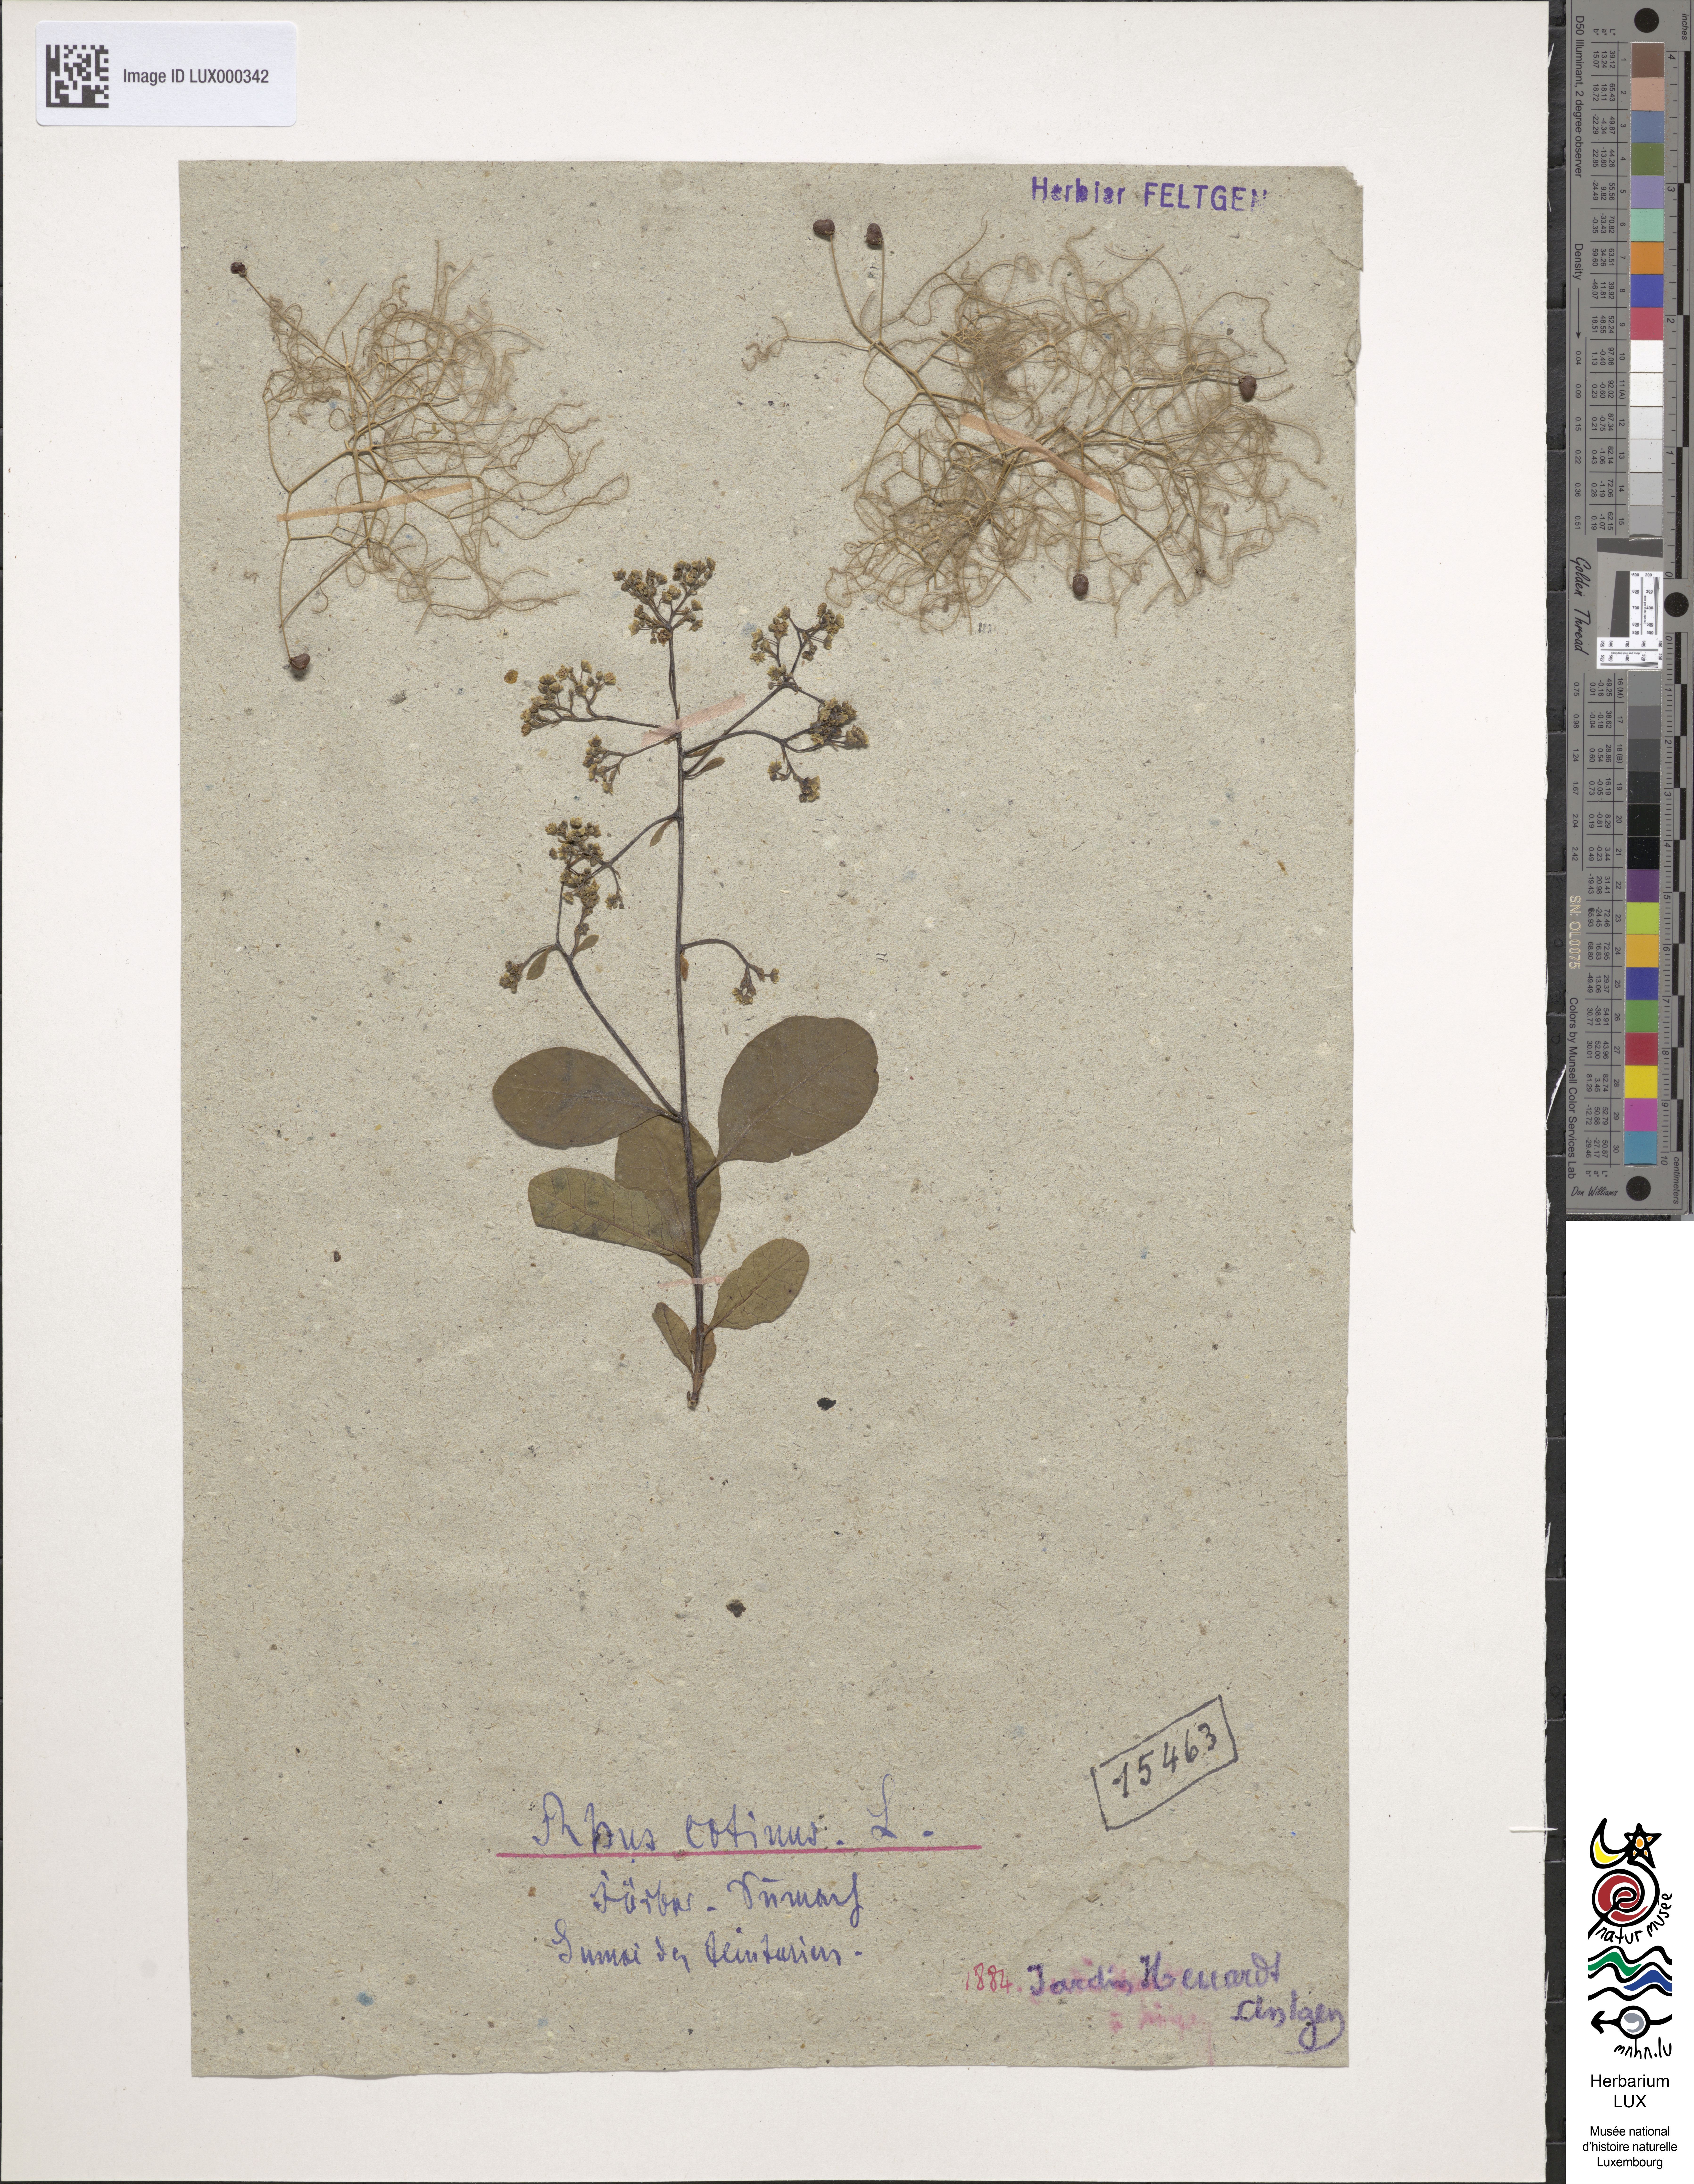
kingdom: Plantae
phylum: Tracheophyta
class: Magnoliopsida
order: Sapindales
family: Anacardiaceae
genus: Cotinus
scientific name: Cotinus coggygria
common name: Smoke-tree
